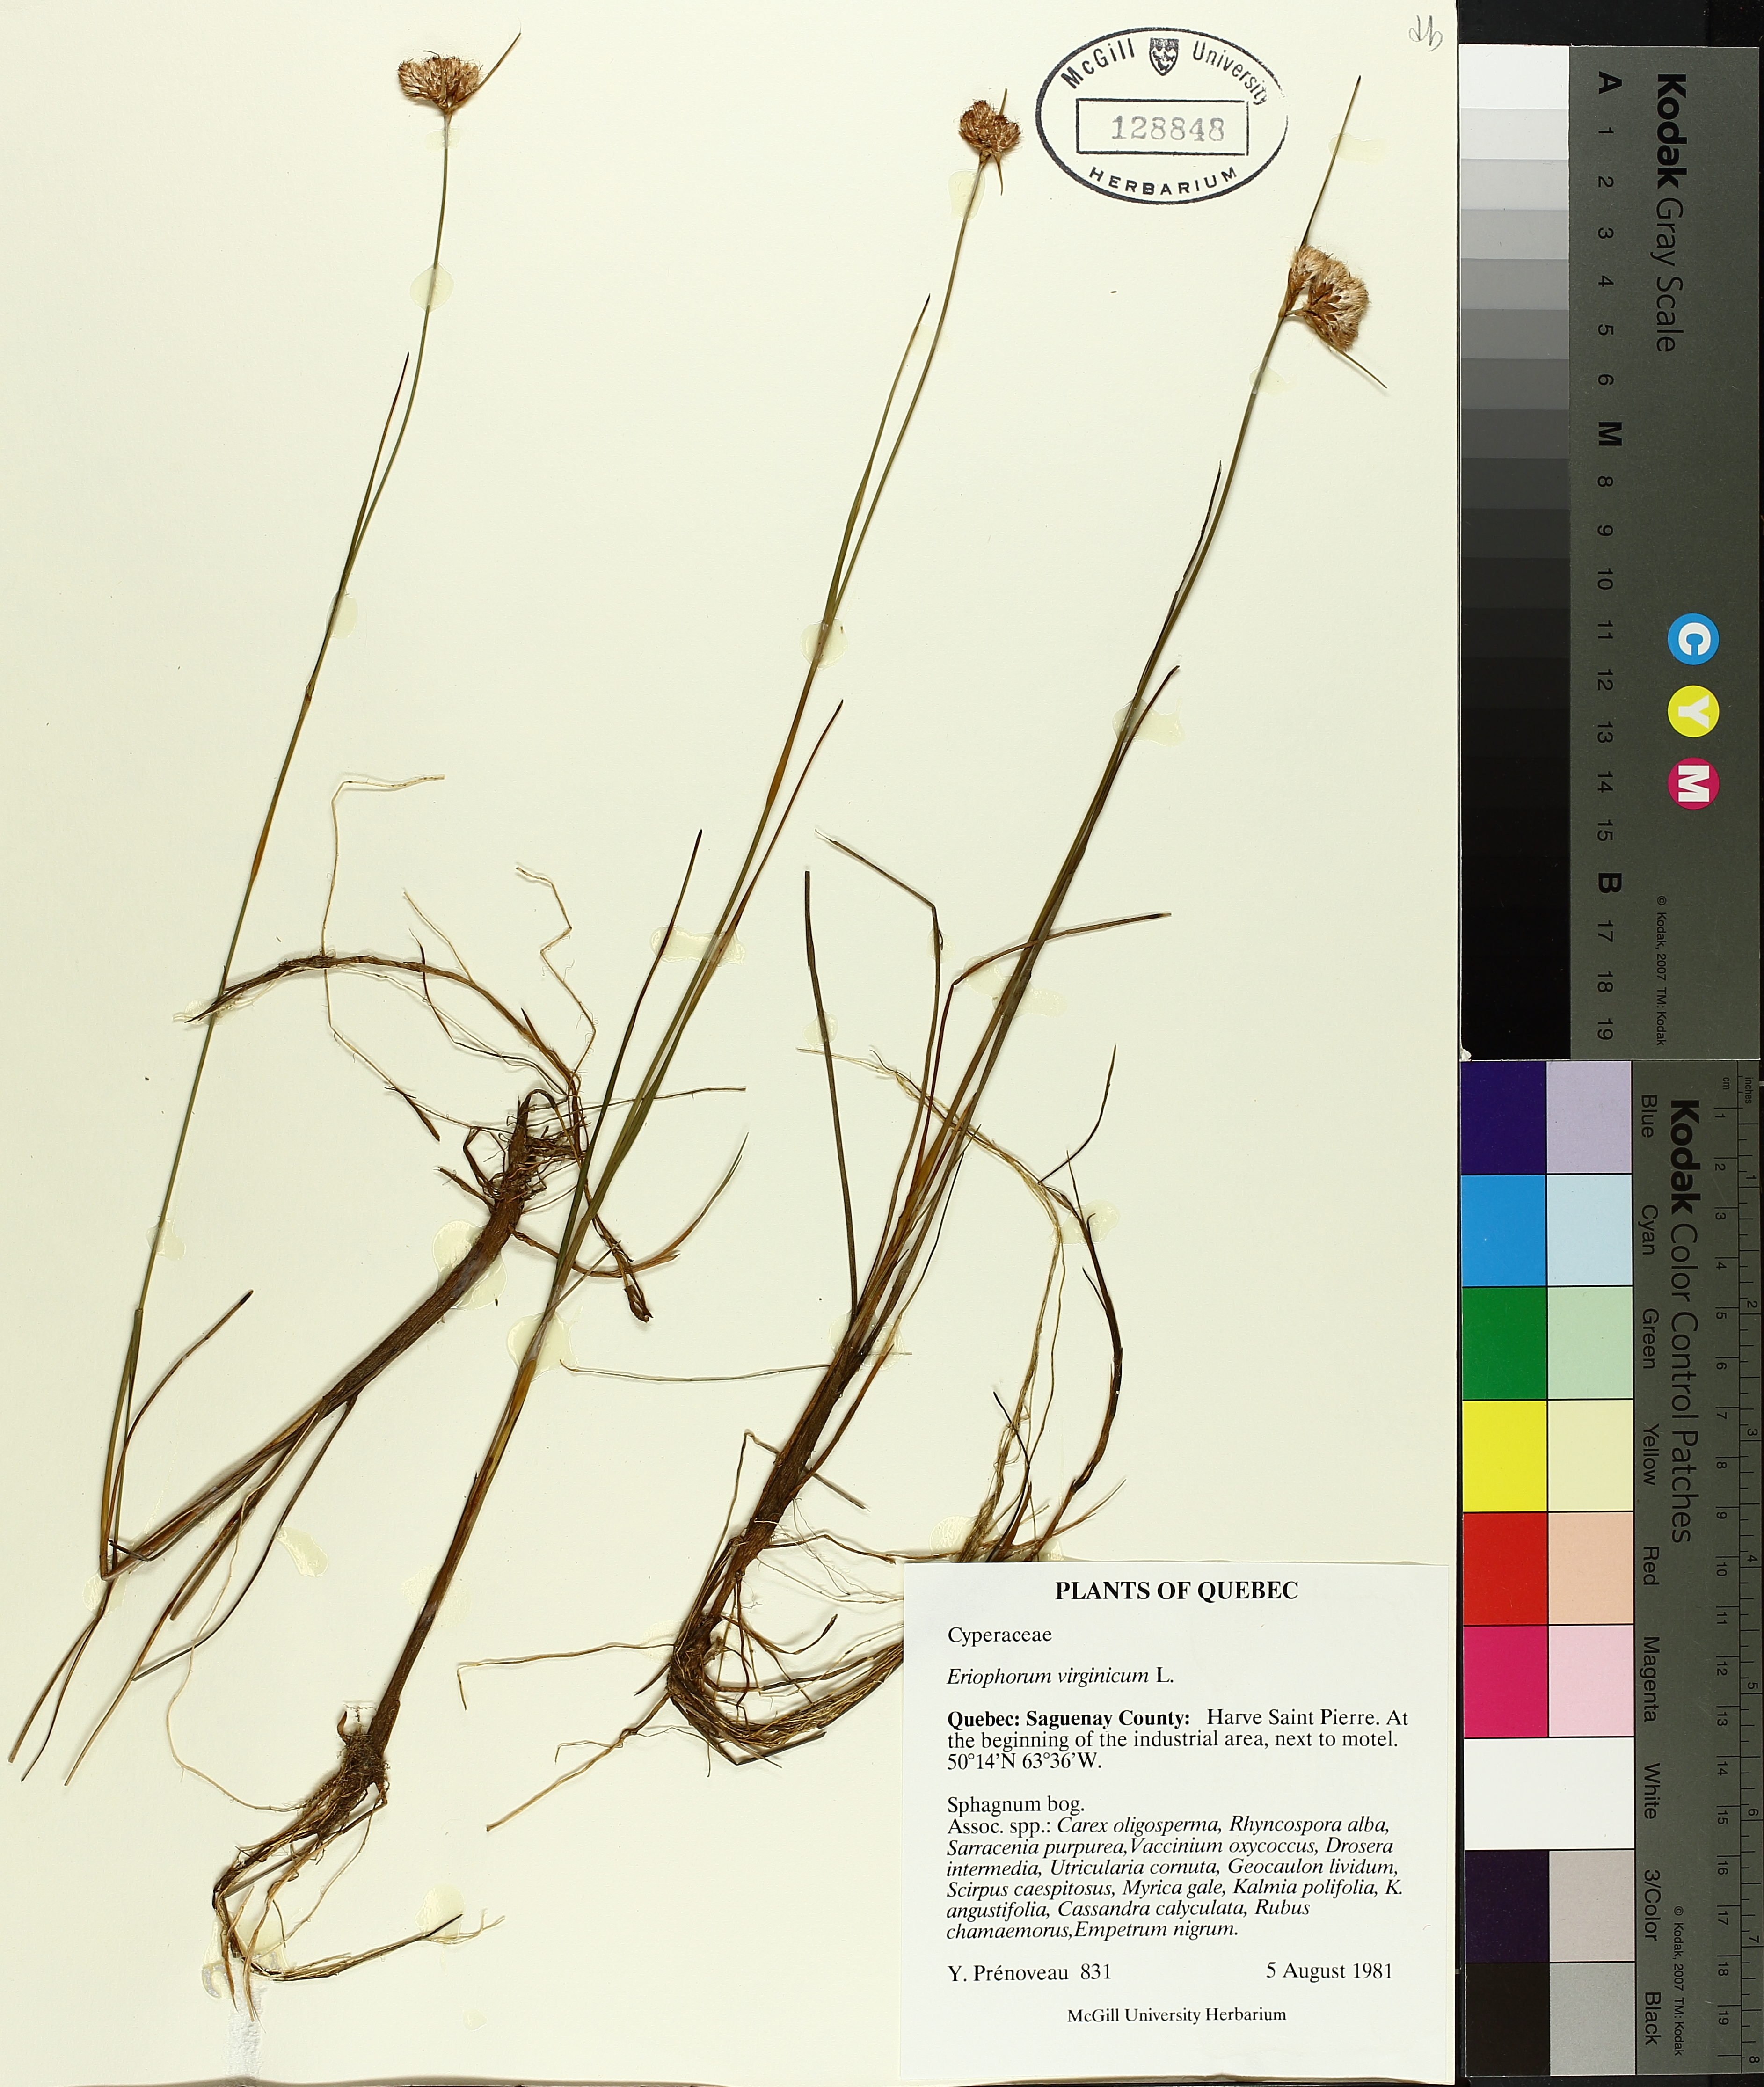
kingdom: Plantae
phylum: Tracheophyta
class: Liliopsida
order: Poales
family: Cyperaceae
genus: Eriophorum
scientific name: Eriophorum virginicum
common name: Tawny cottongrass
